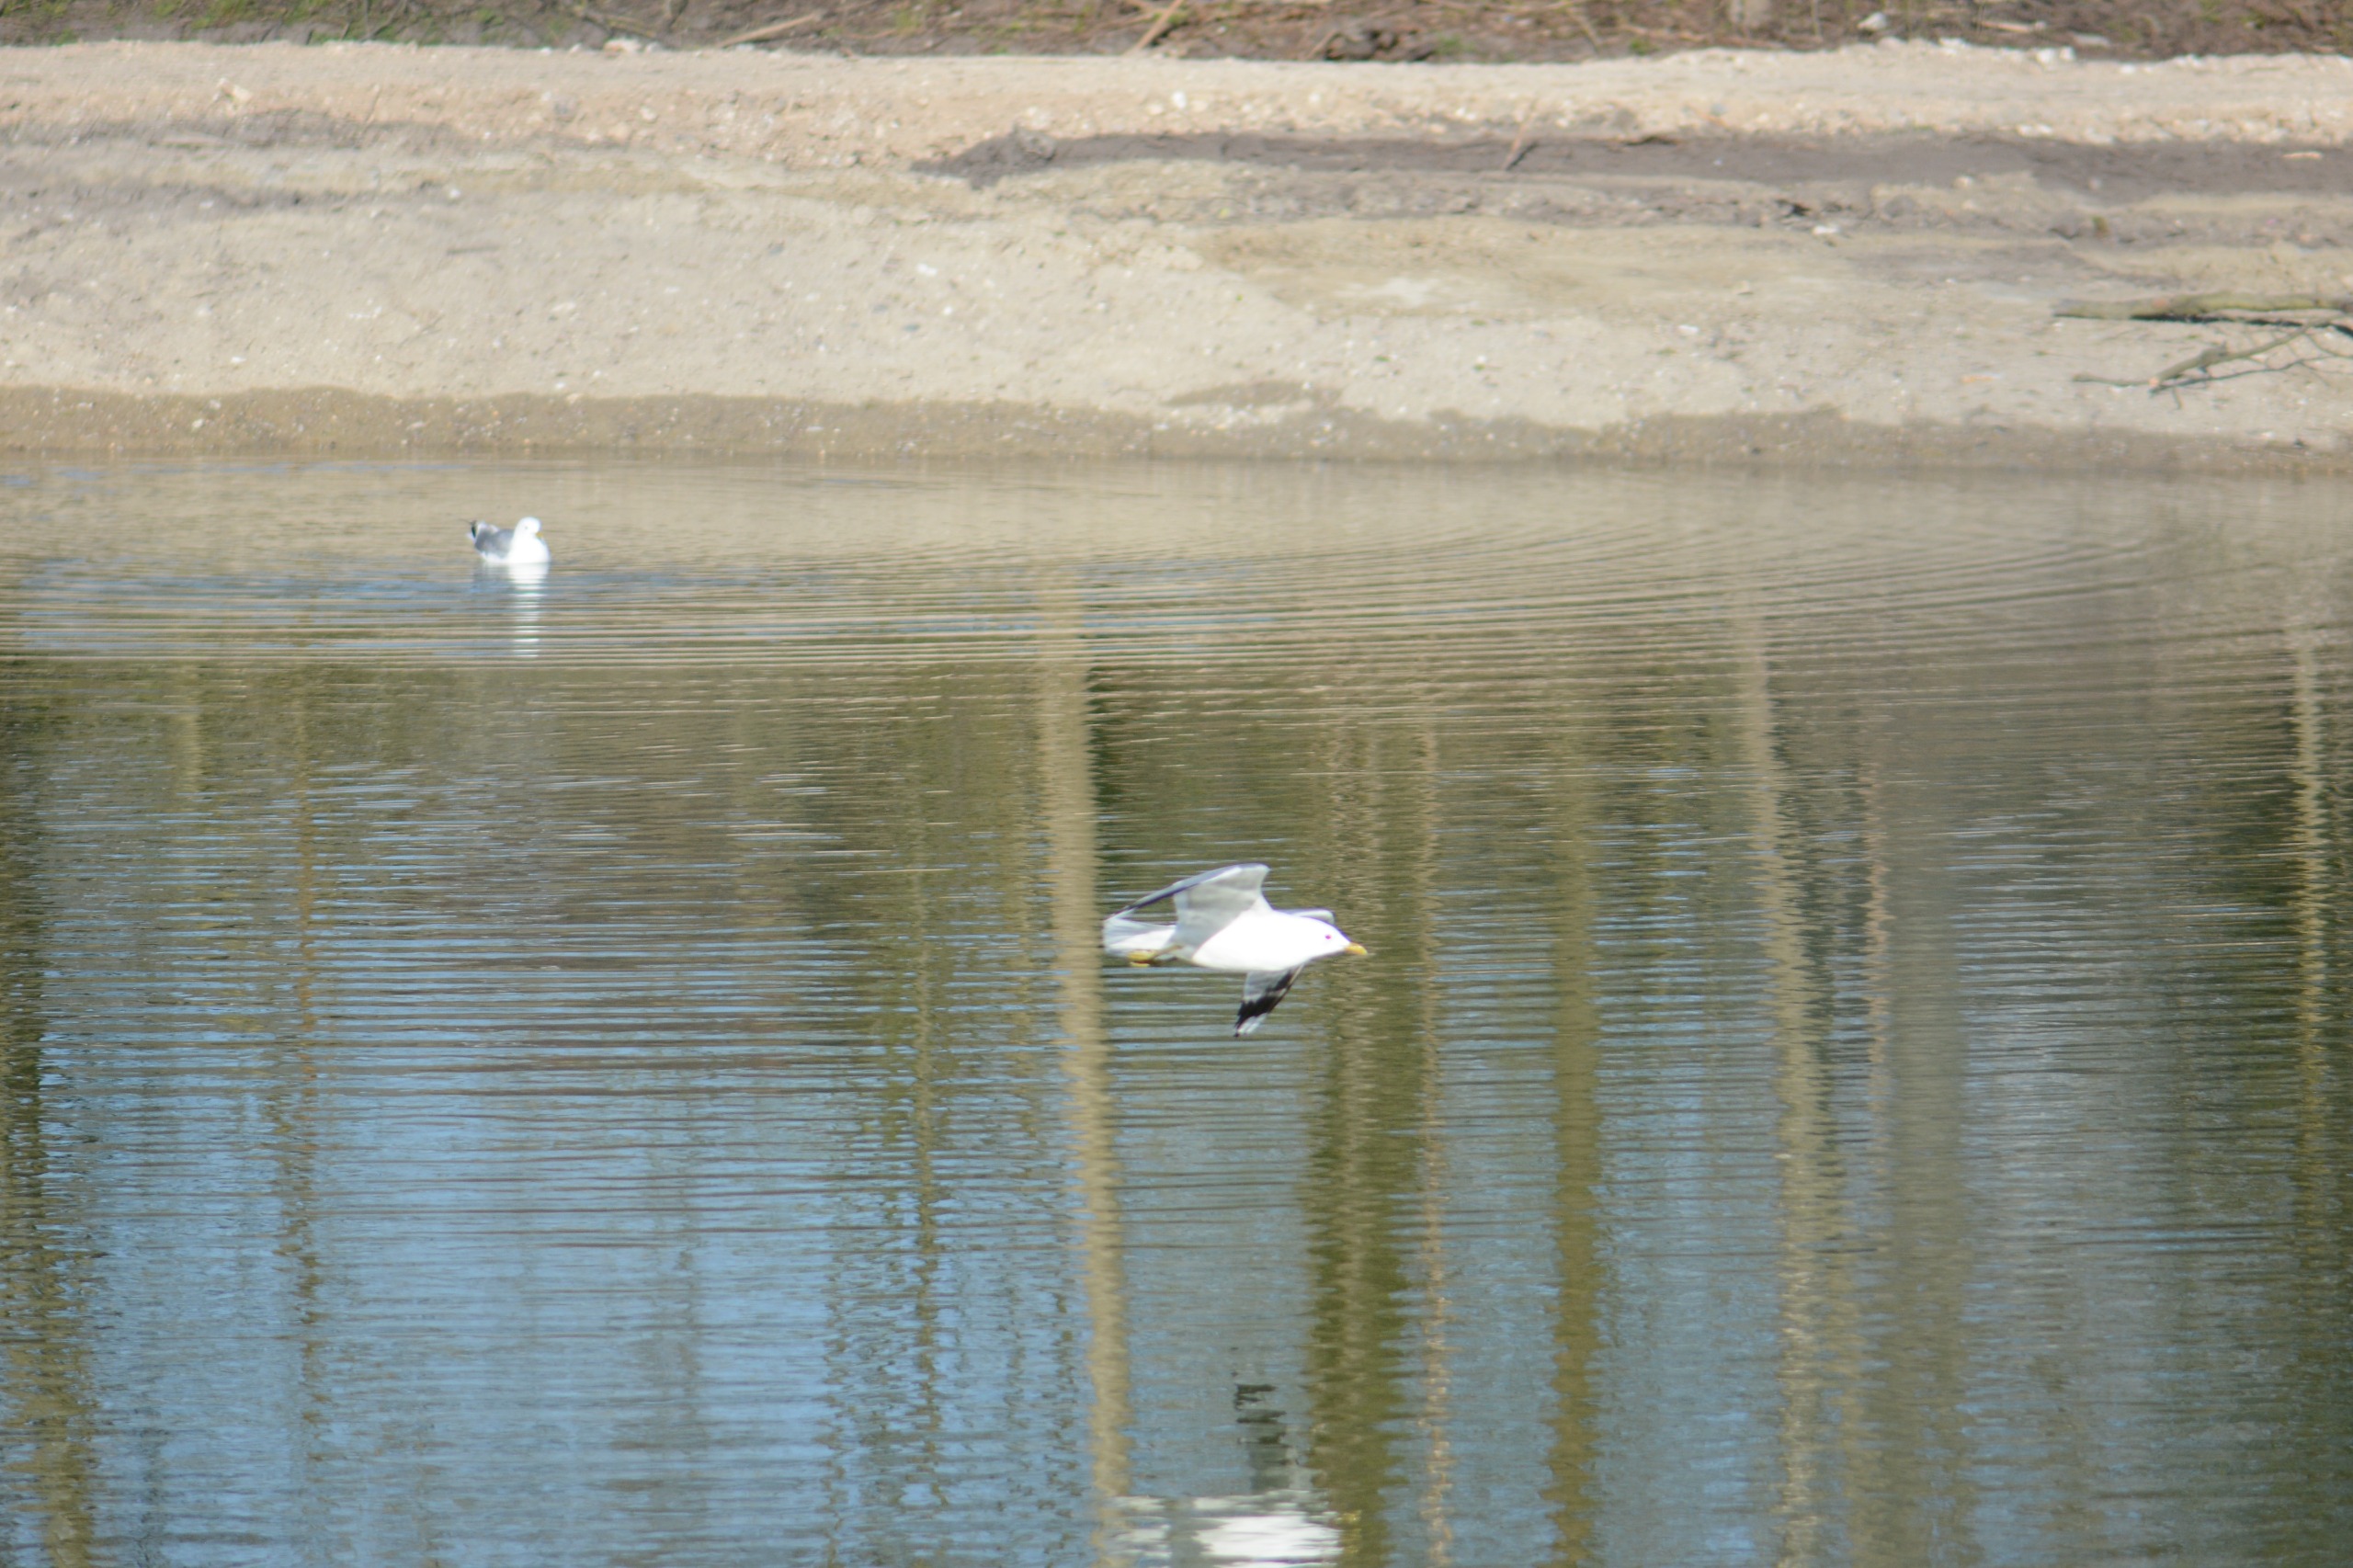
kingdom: Animalia
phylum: Chordata
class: Aves
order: Charadriiformes
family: Laridae
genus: Larus
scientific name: Larus canus
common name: Stormmåge
